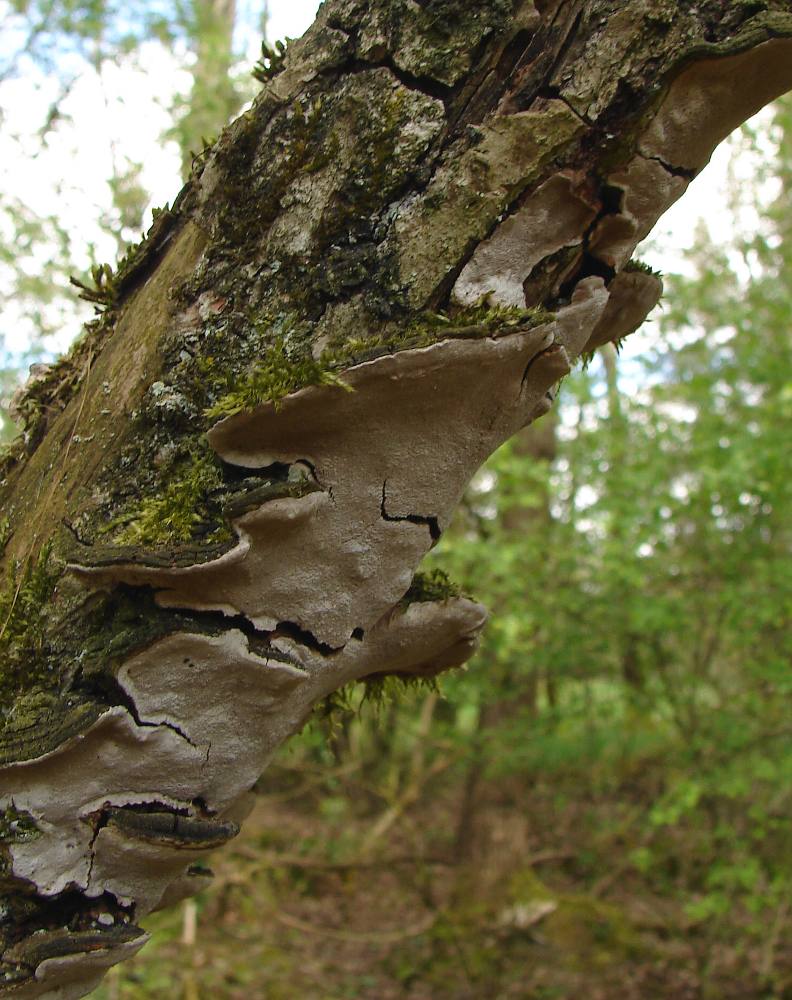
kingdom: Fungi
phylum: Basidiomycota
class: Agaricomycetes
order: Hymenochaetales
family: Hymenochaetaceae
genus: Phellinopsis
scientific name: Phellinopsis conchata
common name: pile-ildporesvamp
